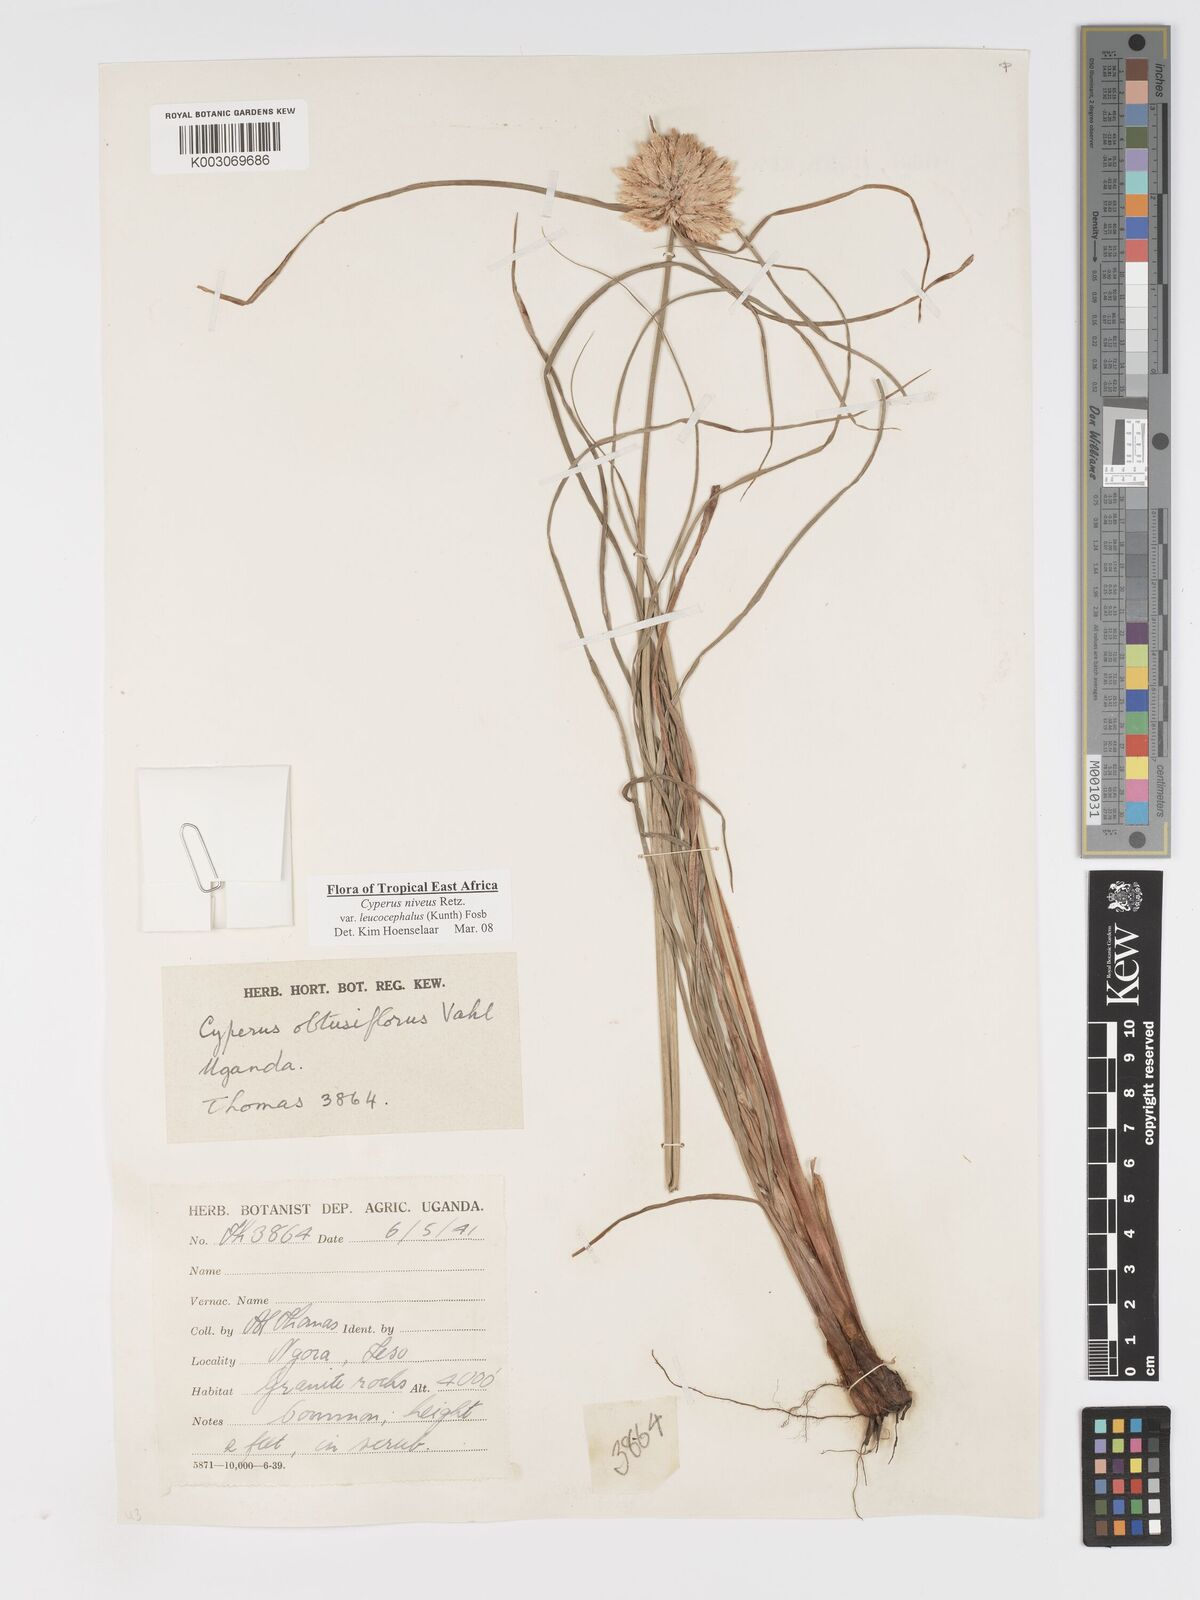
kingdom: Plantae
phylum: Tracheophyta
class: Liliopsida
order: Poales
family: Cyperaceae
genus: Cyperus
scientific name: Cyperus niveus
